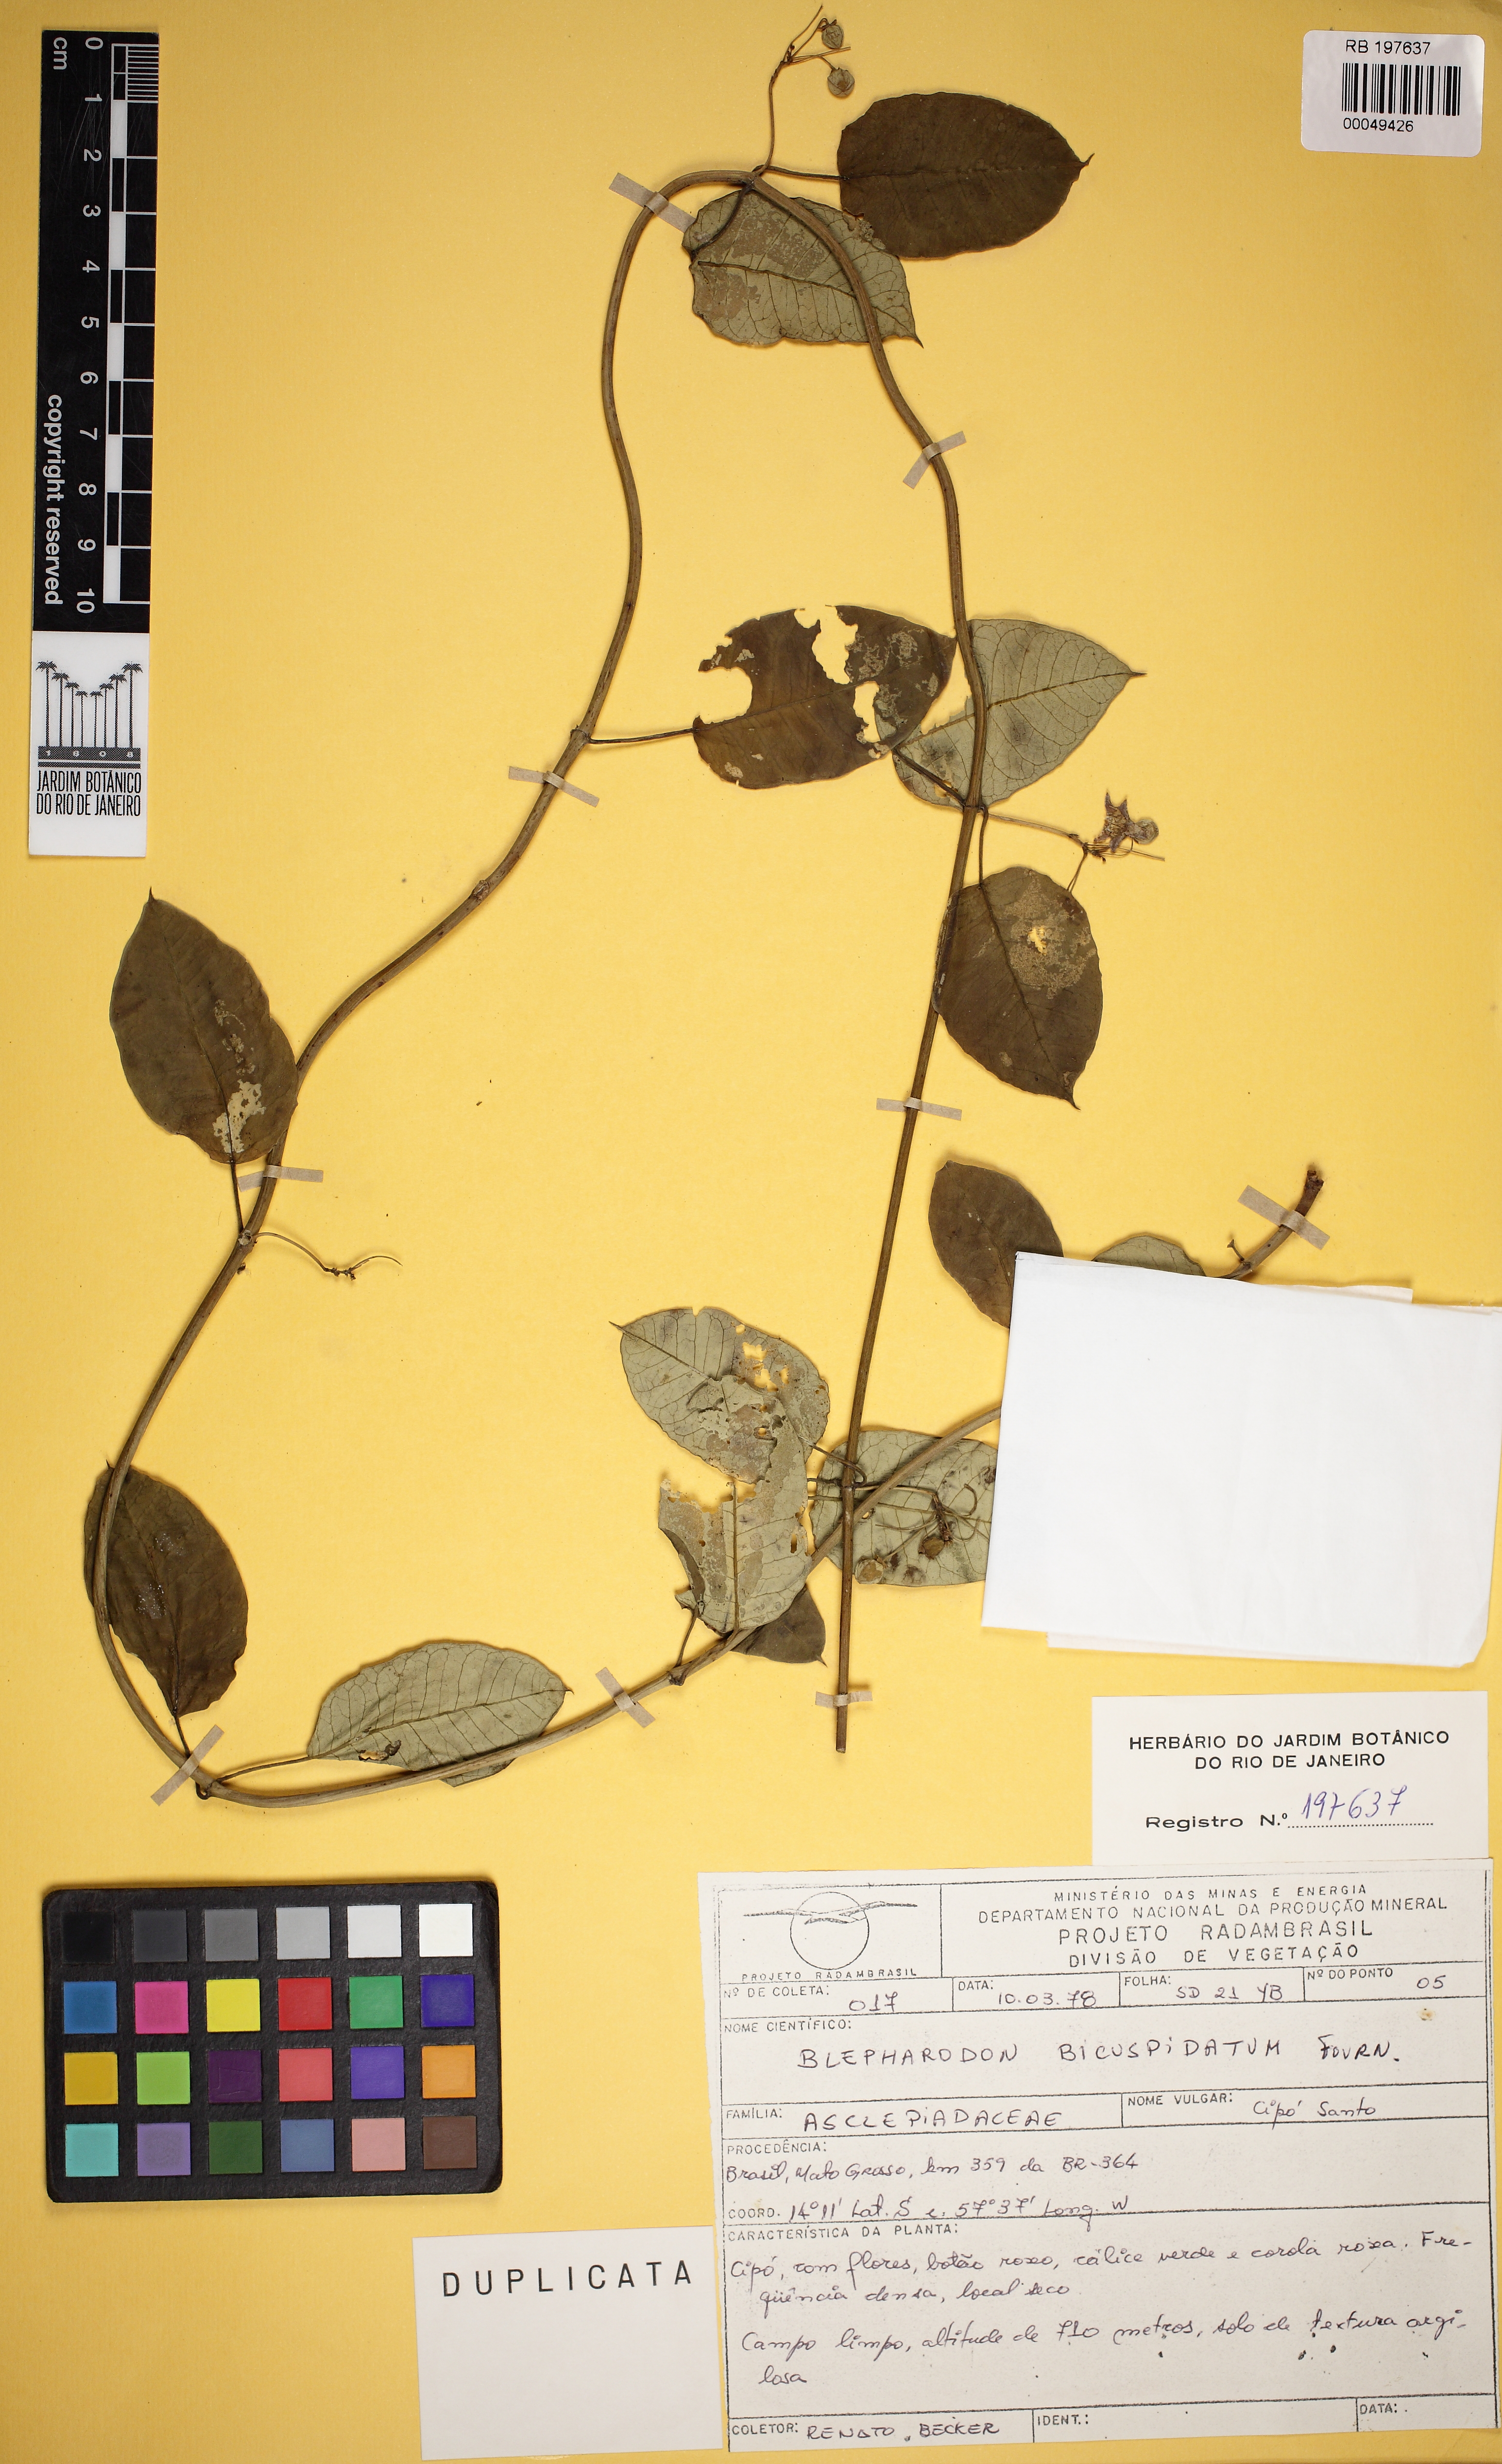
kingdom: Plantae
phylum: Tracheophyta
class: Magnoliopsida
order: Gentianales
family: Apocynaceae
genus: Blepharodon
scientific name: Blepharodon bicuspidatum
